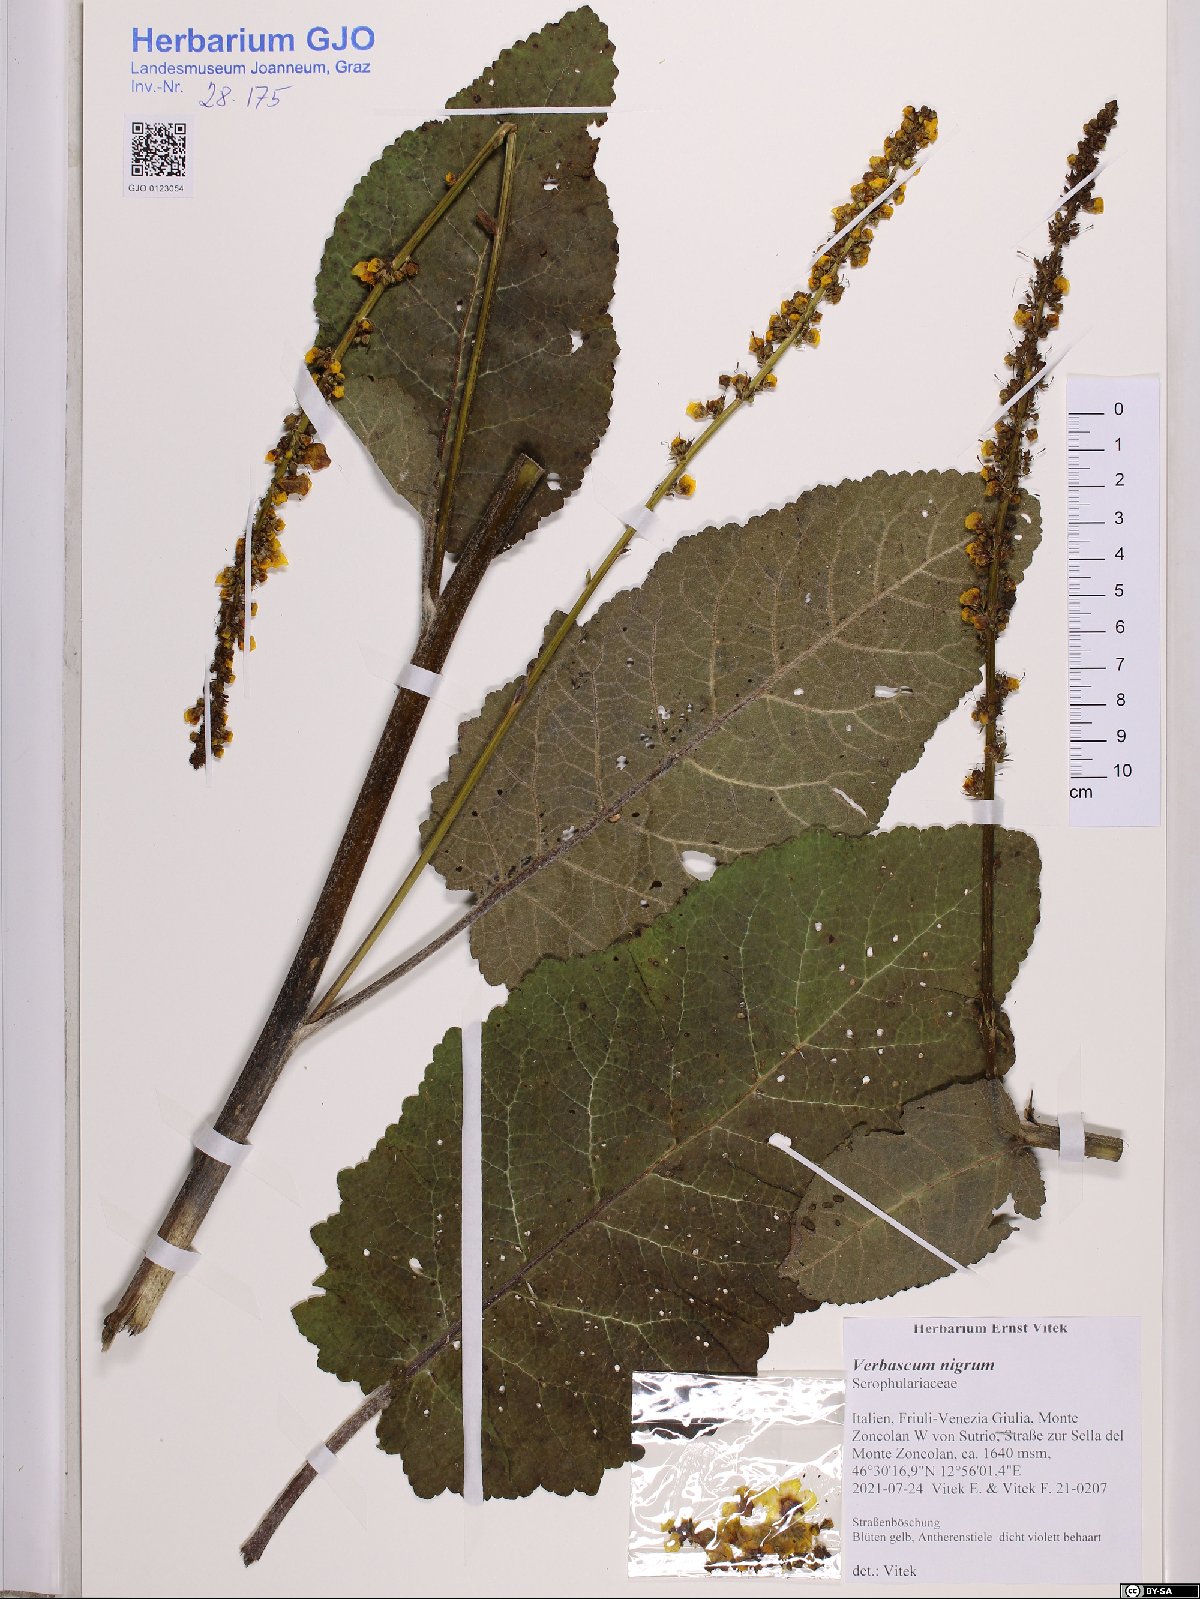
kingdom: Plantae
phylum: Tracheophyta
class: Magnoliopsida
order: Lamiales
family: Scrophulariaceae
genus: Verbascum
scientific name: Verbascum nigrum
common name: Dark mullein
